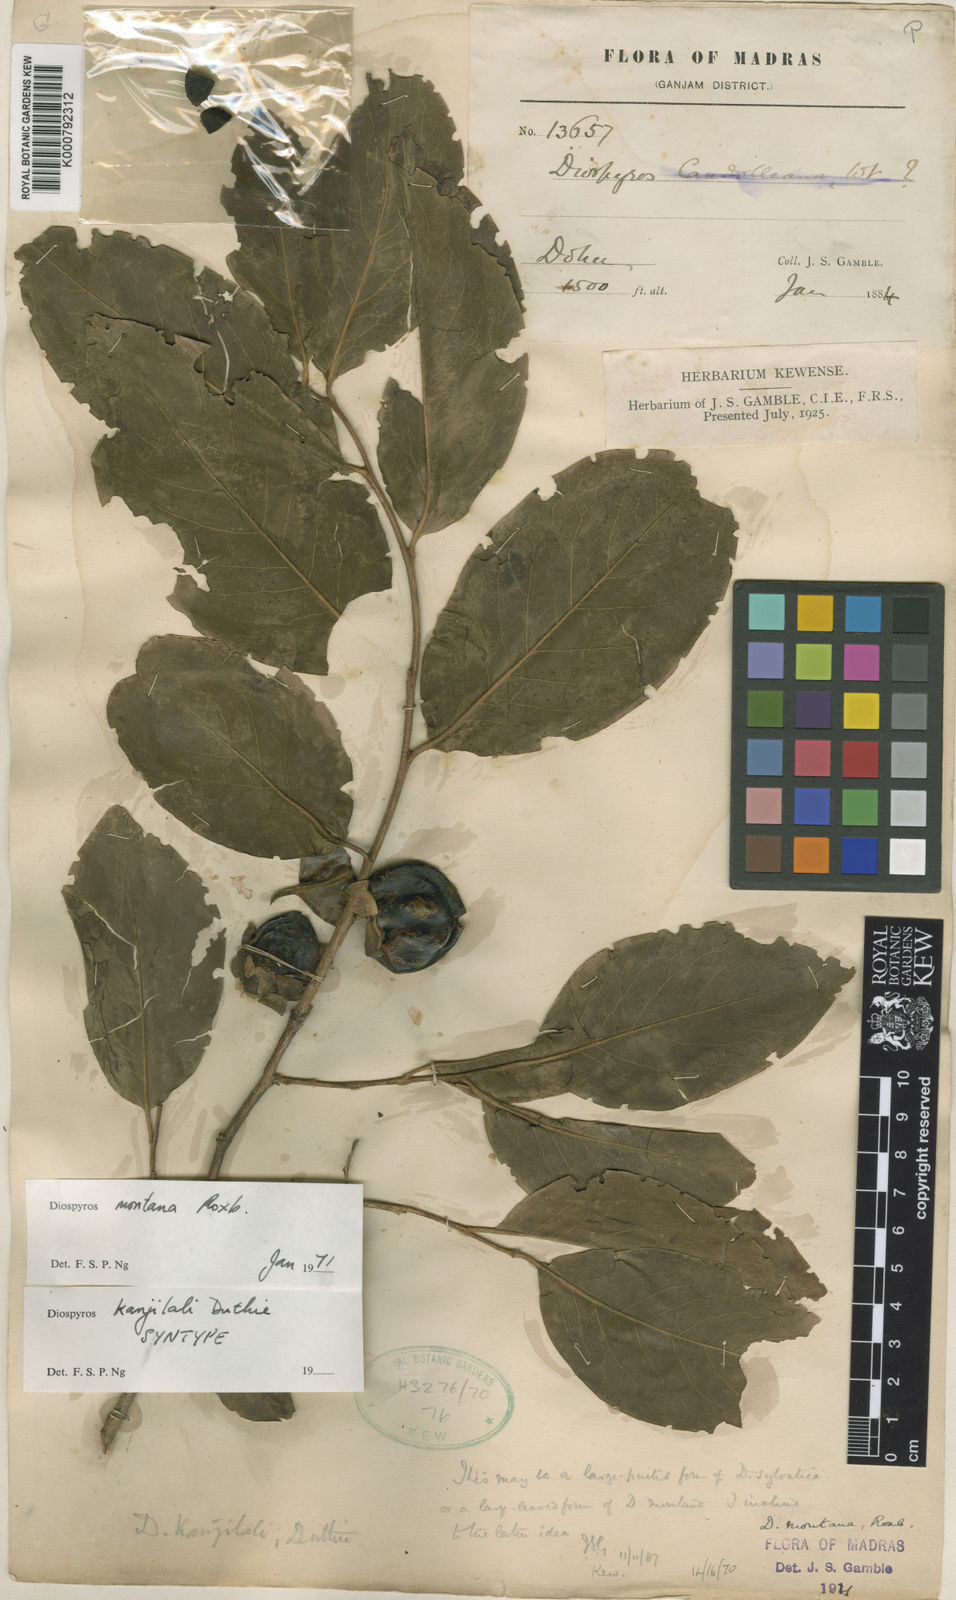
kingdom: Plantae
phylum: Tracheophyta
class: Magnoliopsida
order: Ericales
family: Ebenaceae
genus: Diospyros
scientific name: Diospyros montana
